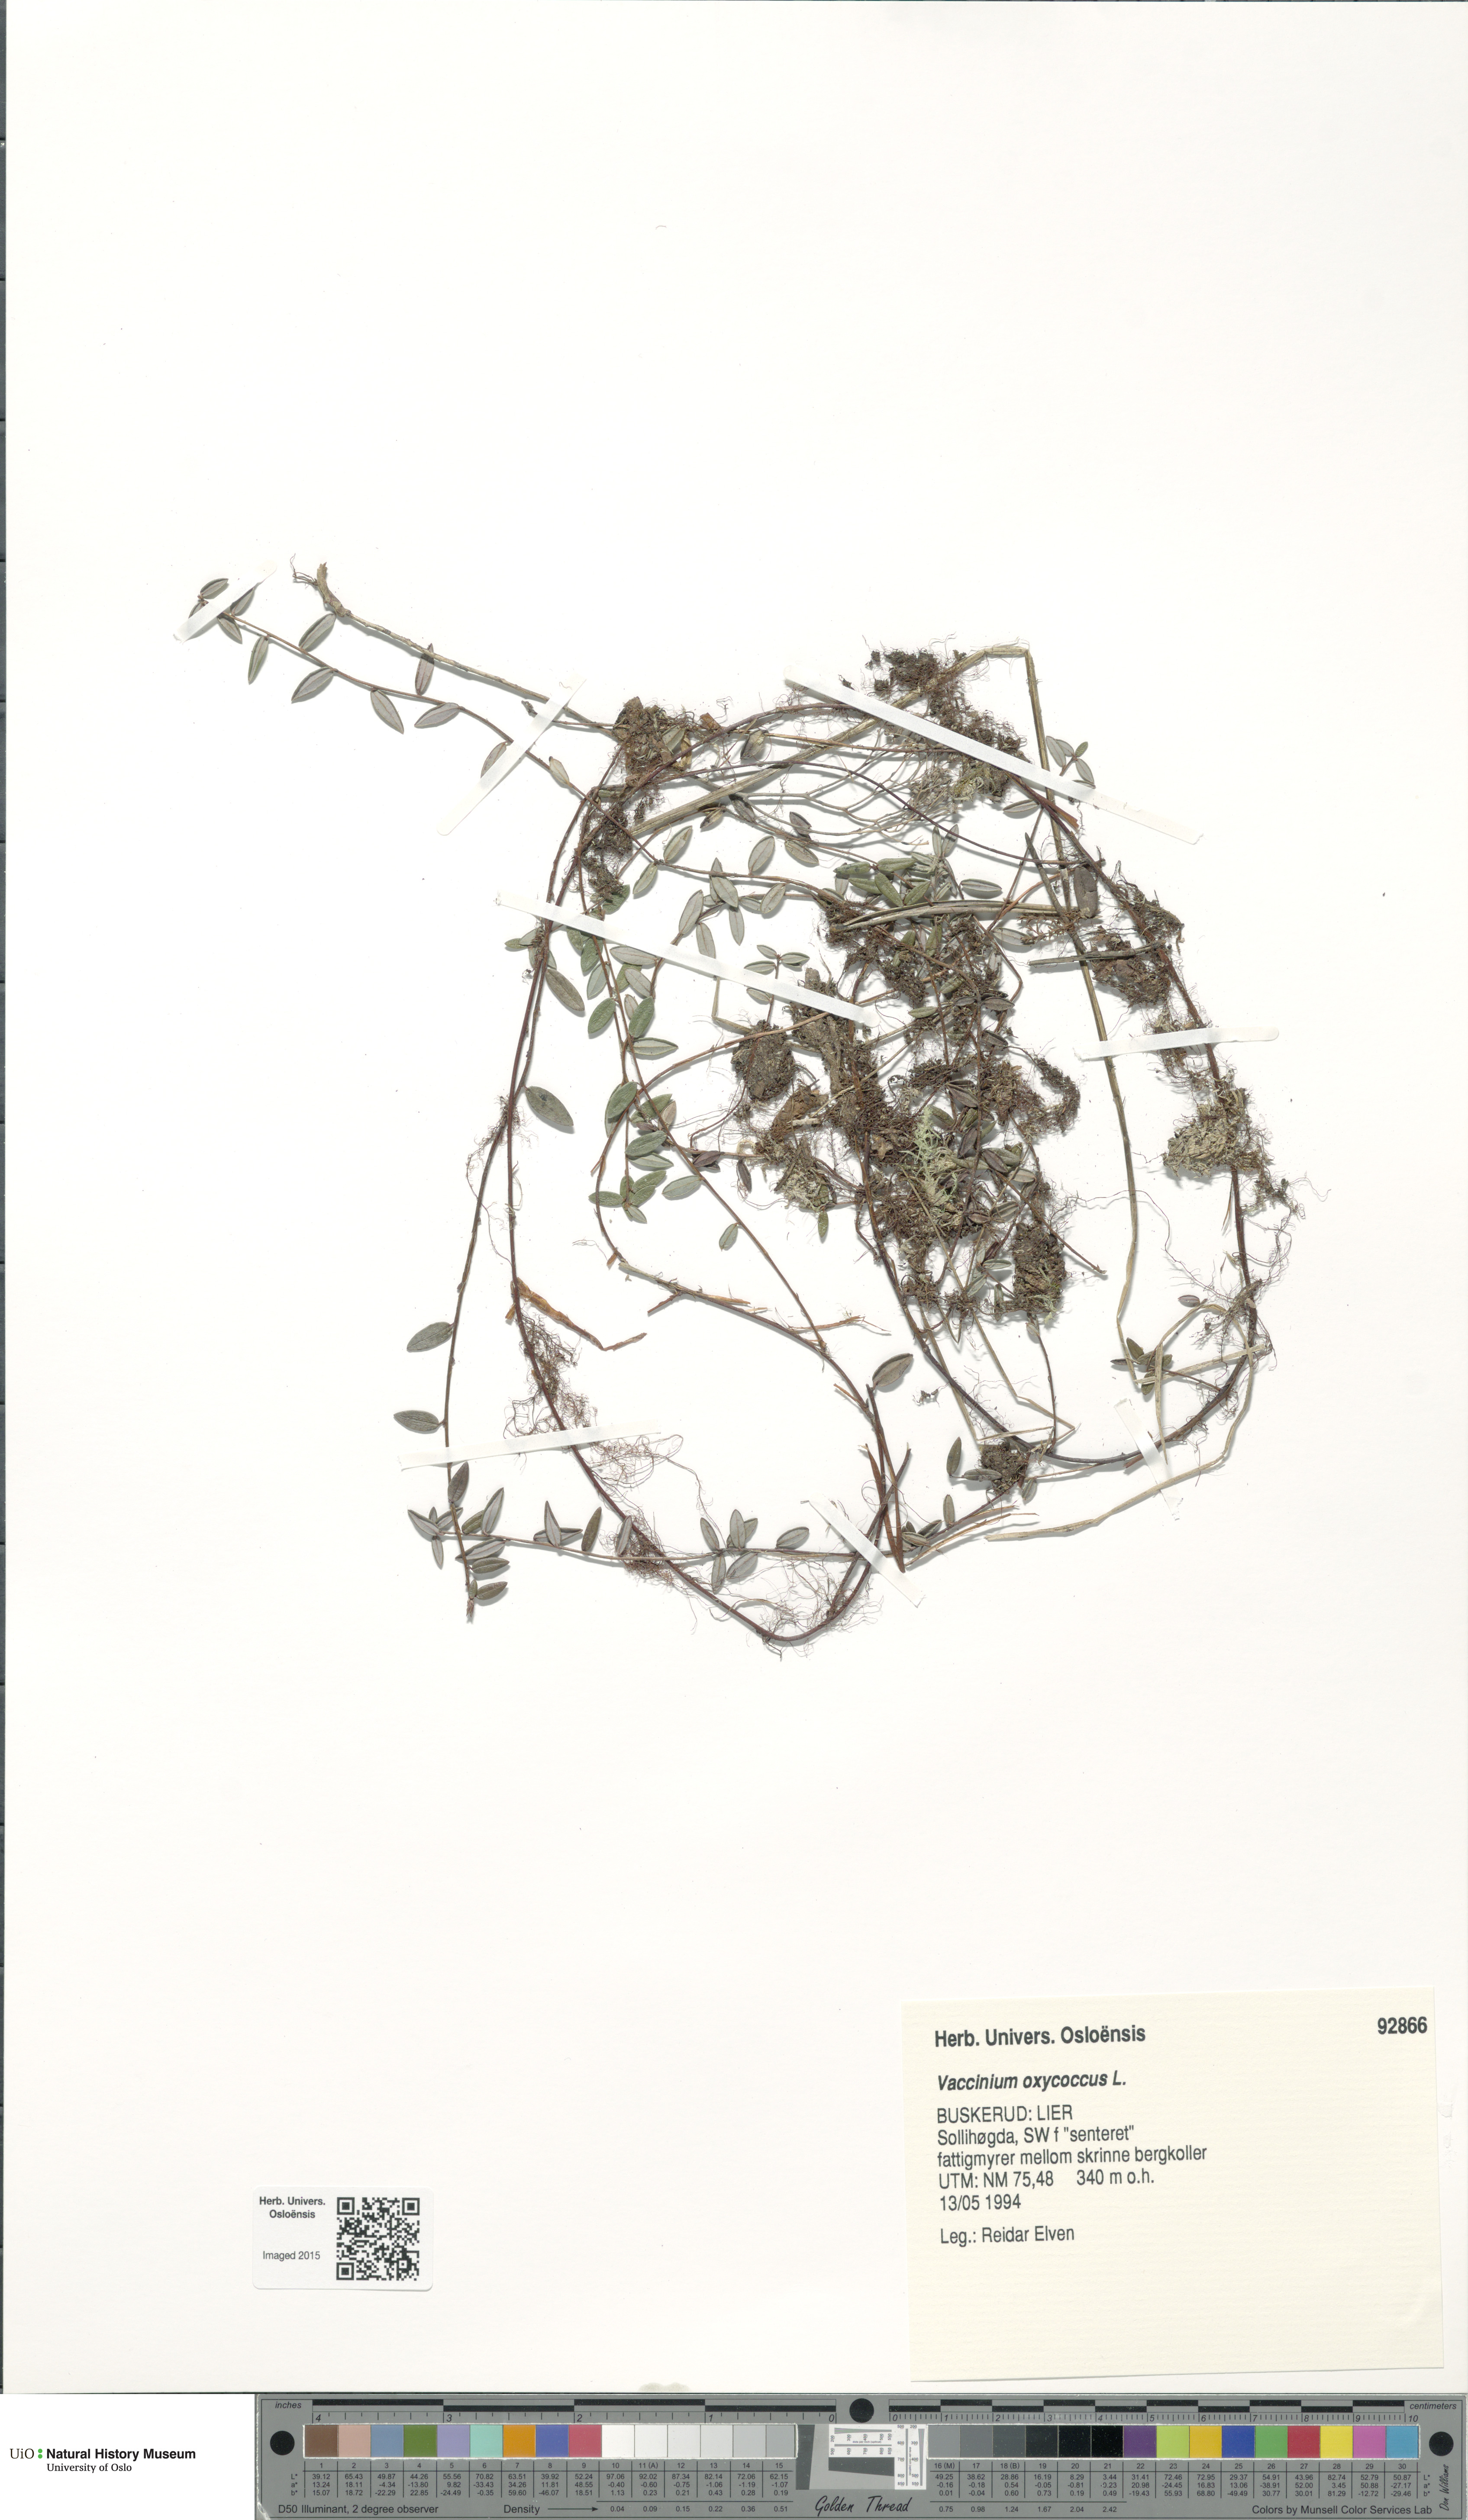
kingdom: Plantae
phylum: Tracheophyta
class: Magnoliopsida
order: Ericales
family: Ericaceae
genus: Vaccinium
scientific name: Vaccinium oxycoccos
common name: Cranberry
